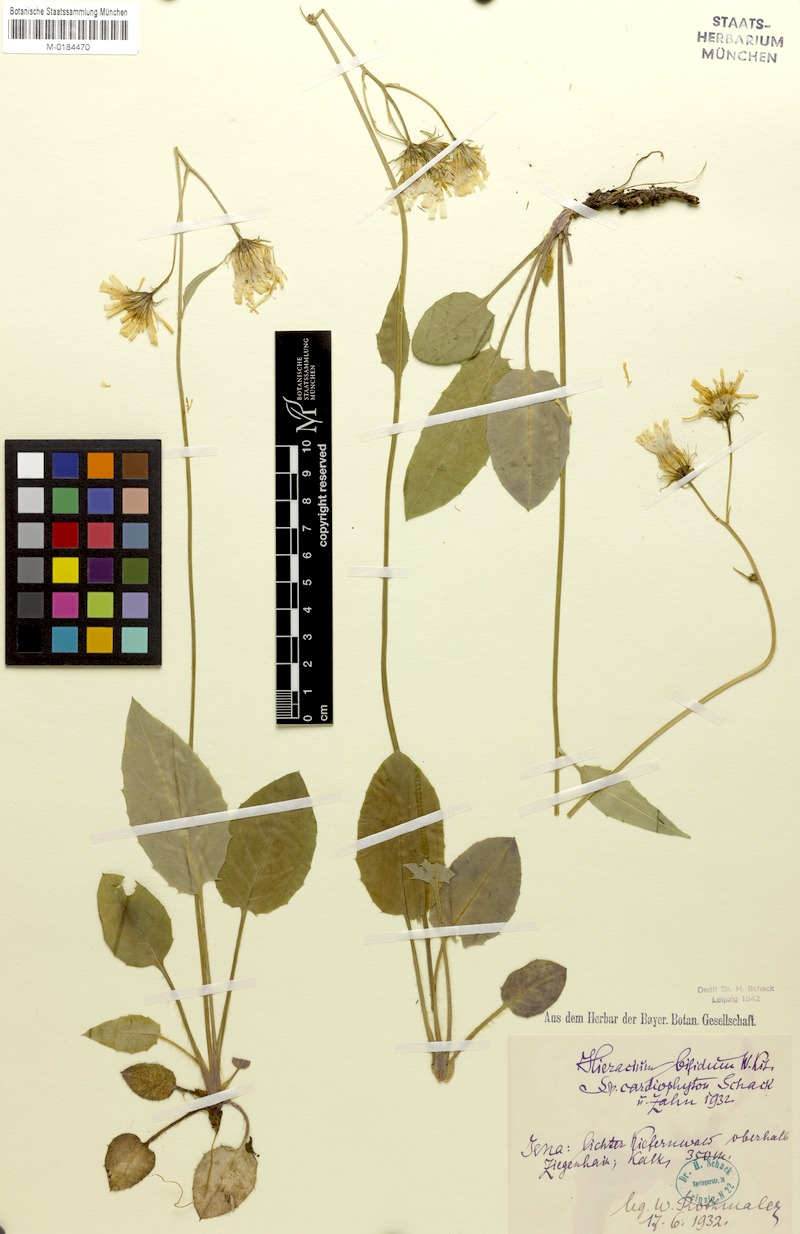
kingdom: Plantae
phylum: Tracheophyta
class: Magnoliopsida
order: Asterales
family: Asteraceae
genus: Hieracium
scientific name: Hieracium bifidum
